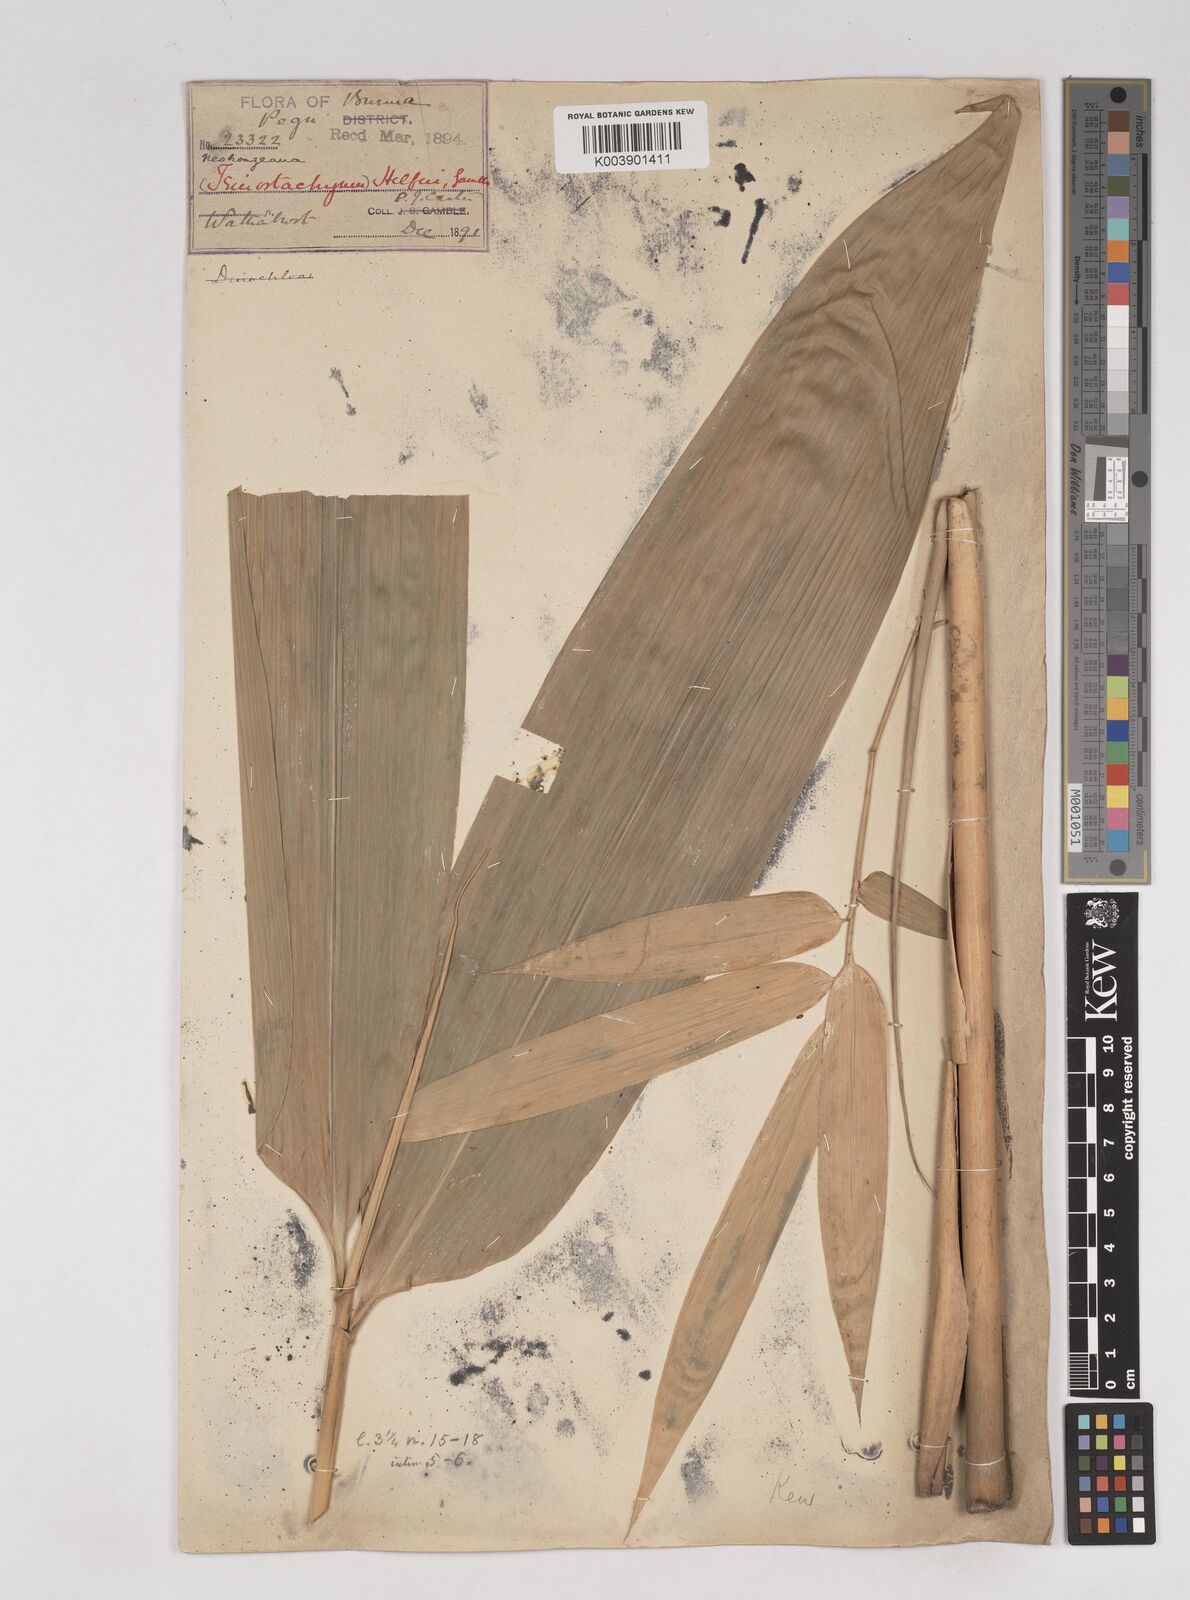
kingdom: Plantae
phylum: Tracheophyta
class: Liliopsida
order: Poales
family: Poaceae
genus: Schizostachyum
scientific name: Schizostachyum helferi
